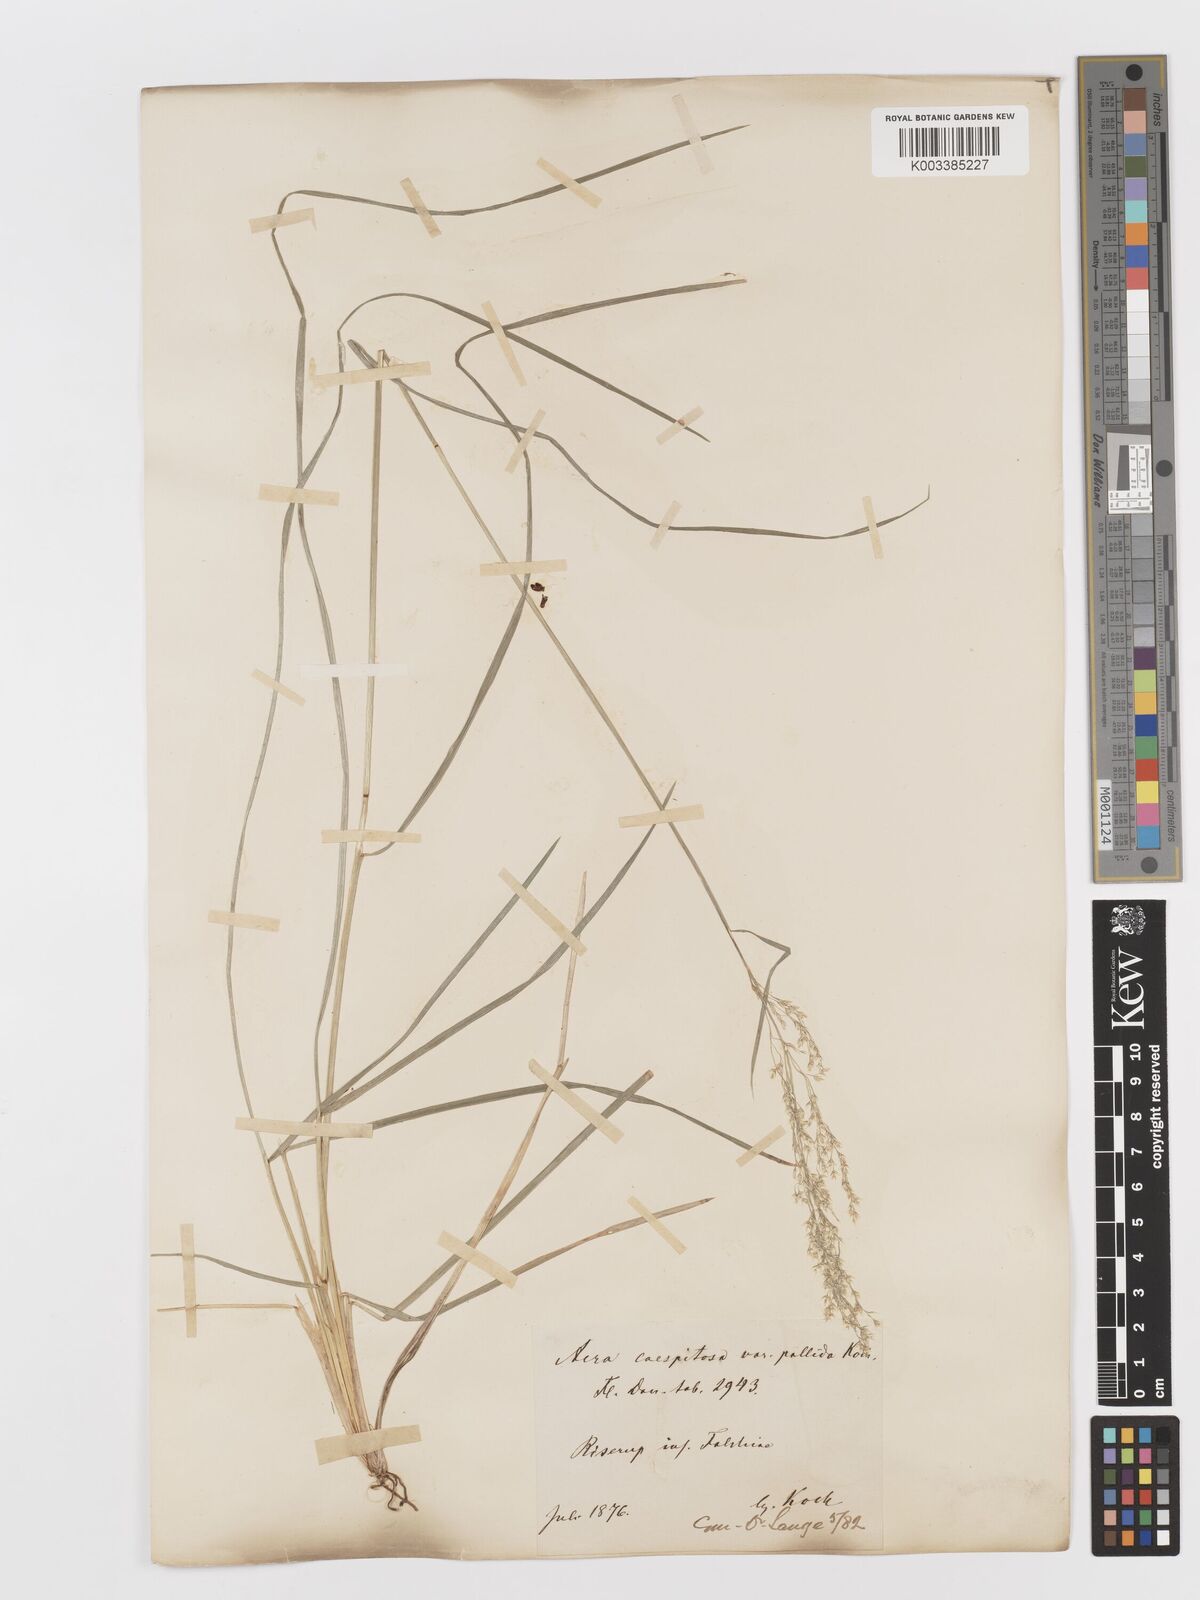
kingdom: Plantae
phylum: Tracheophyta
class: Liliopsida
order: Poales
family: Poaceae
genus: Deschampsia
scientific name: Deschampsia cespitosa
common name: Tufted hair-grass
